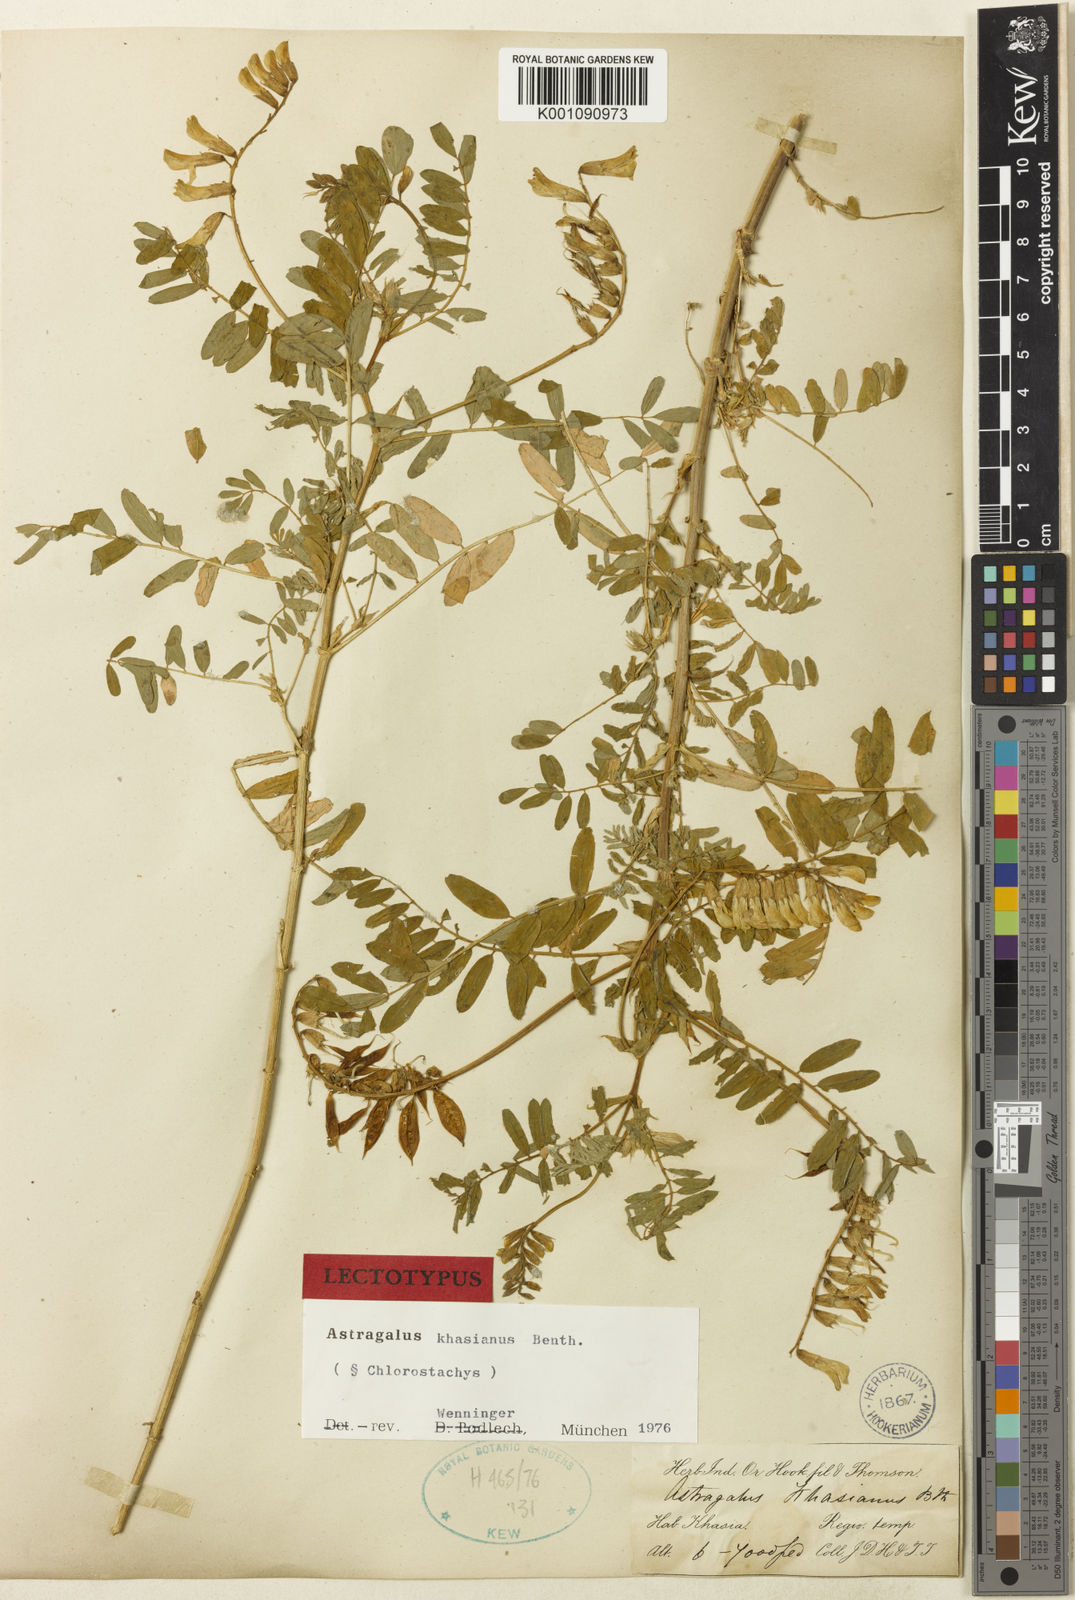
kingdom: Plantae
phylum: Tracheophyta
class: Magnoliopsida
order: Fabales
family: Fabaceae
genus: Astragalus
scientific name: Astragalus
